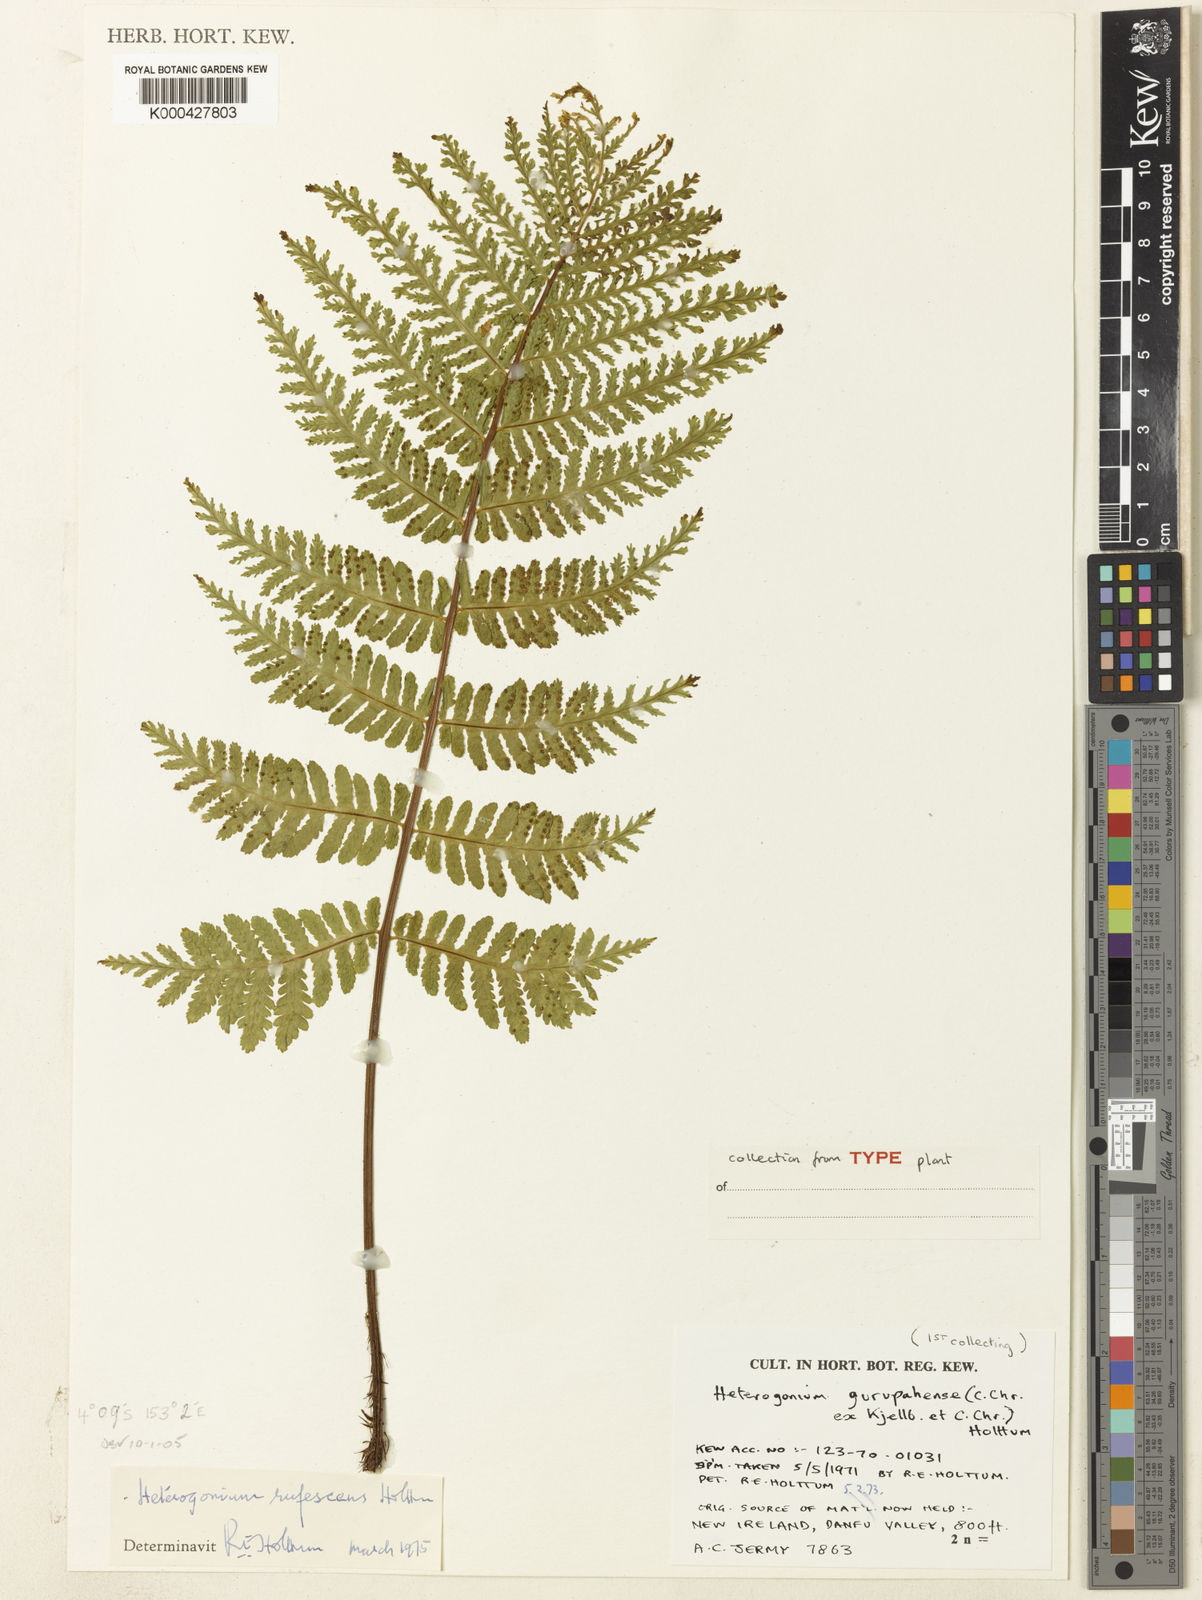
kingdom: Plantae
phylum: Tracheophyta
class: Polypodiopsida
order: Polypodiales
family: Tectariaceae
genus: Tectaria
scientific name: Tectaria jermyi
